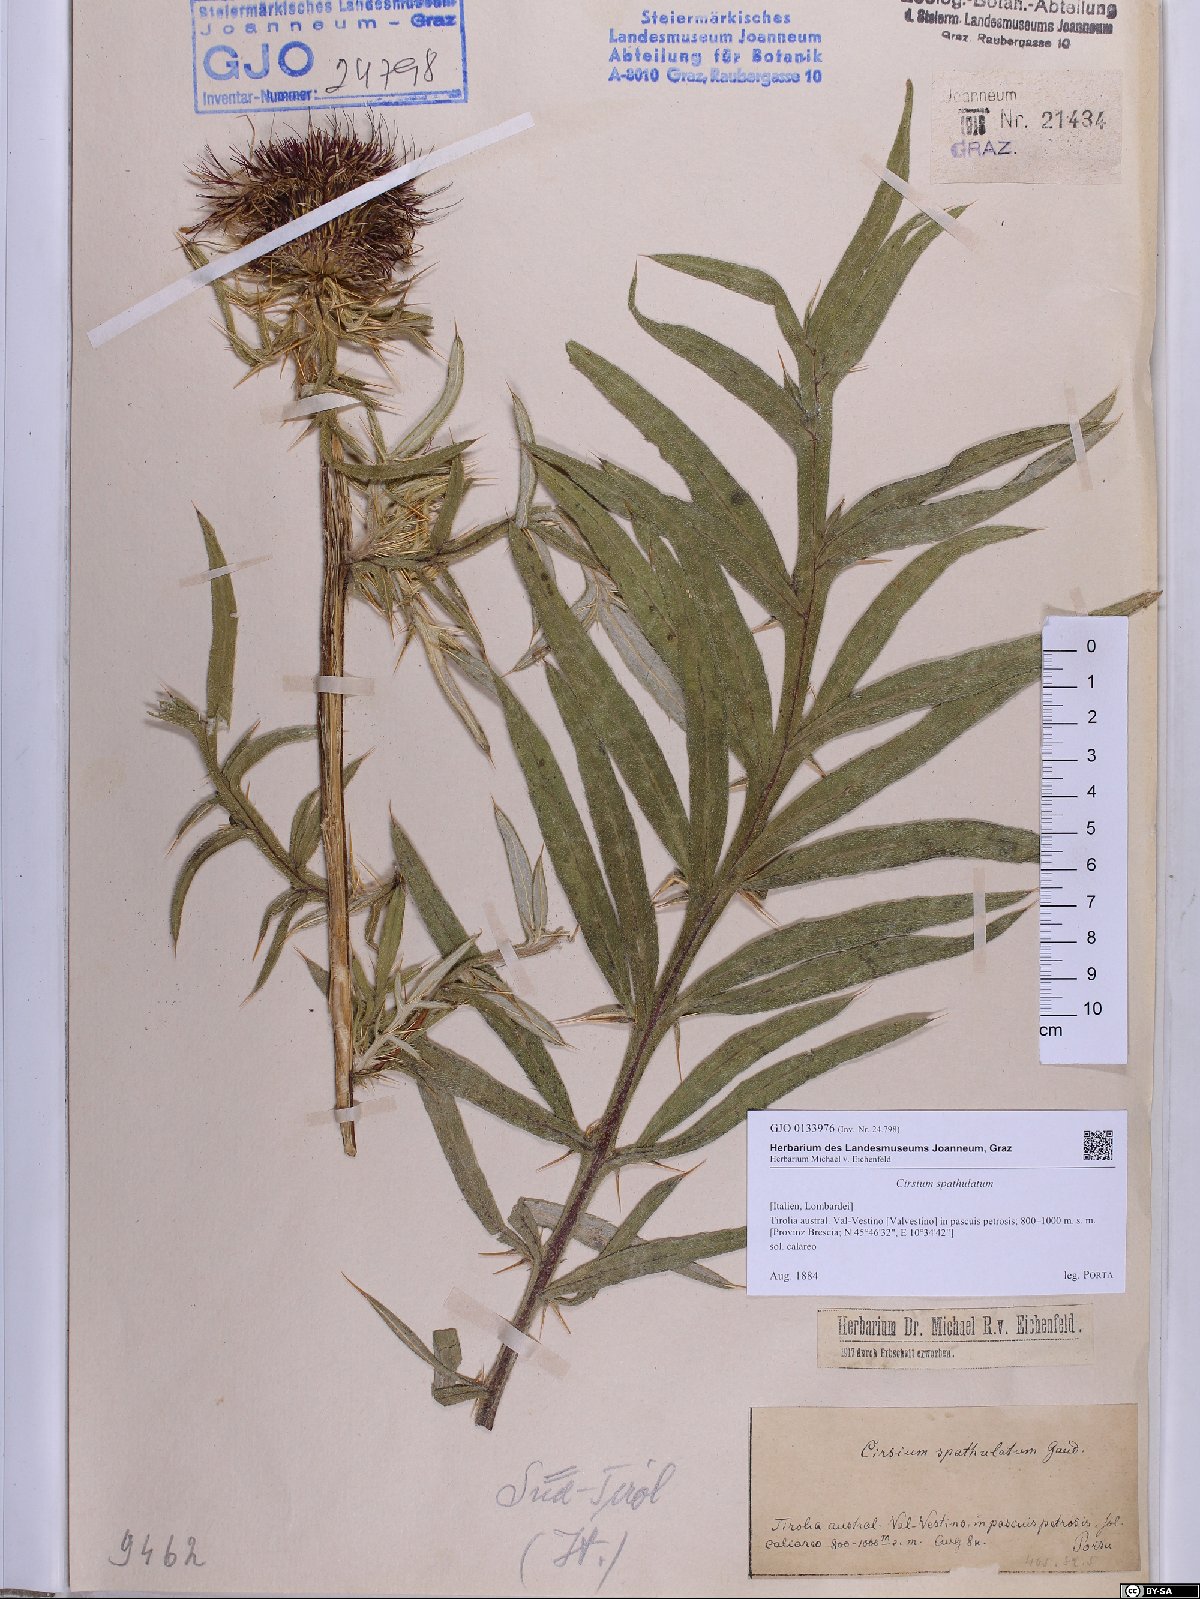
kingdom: Plantae
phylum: Tracheophyta
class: Magnoliopsida
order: Asterales
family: Asteraceae
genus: Lophiolepis
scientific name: Lophiolepis spathulata
